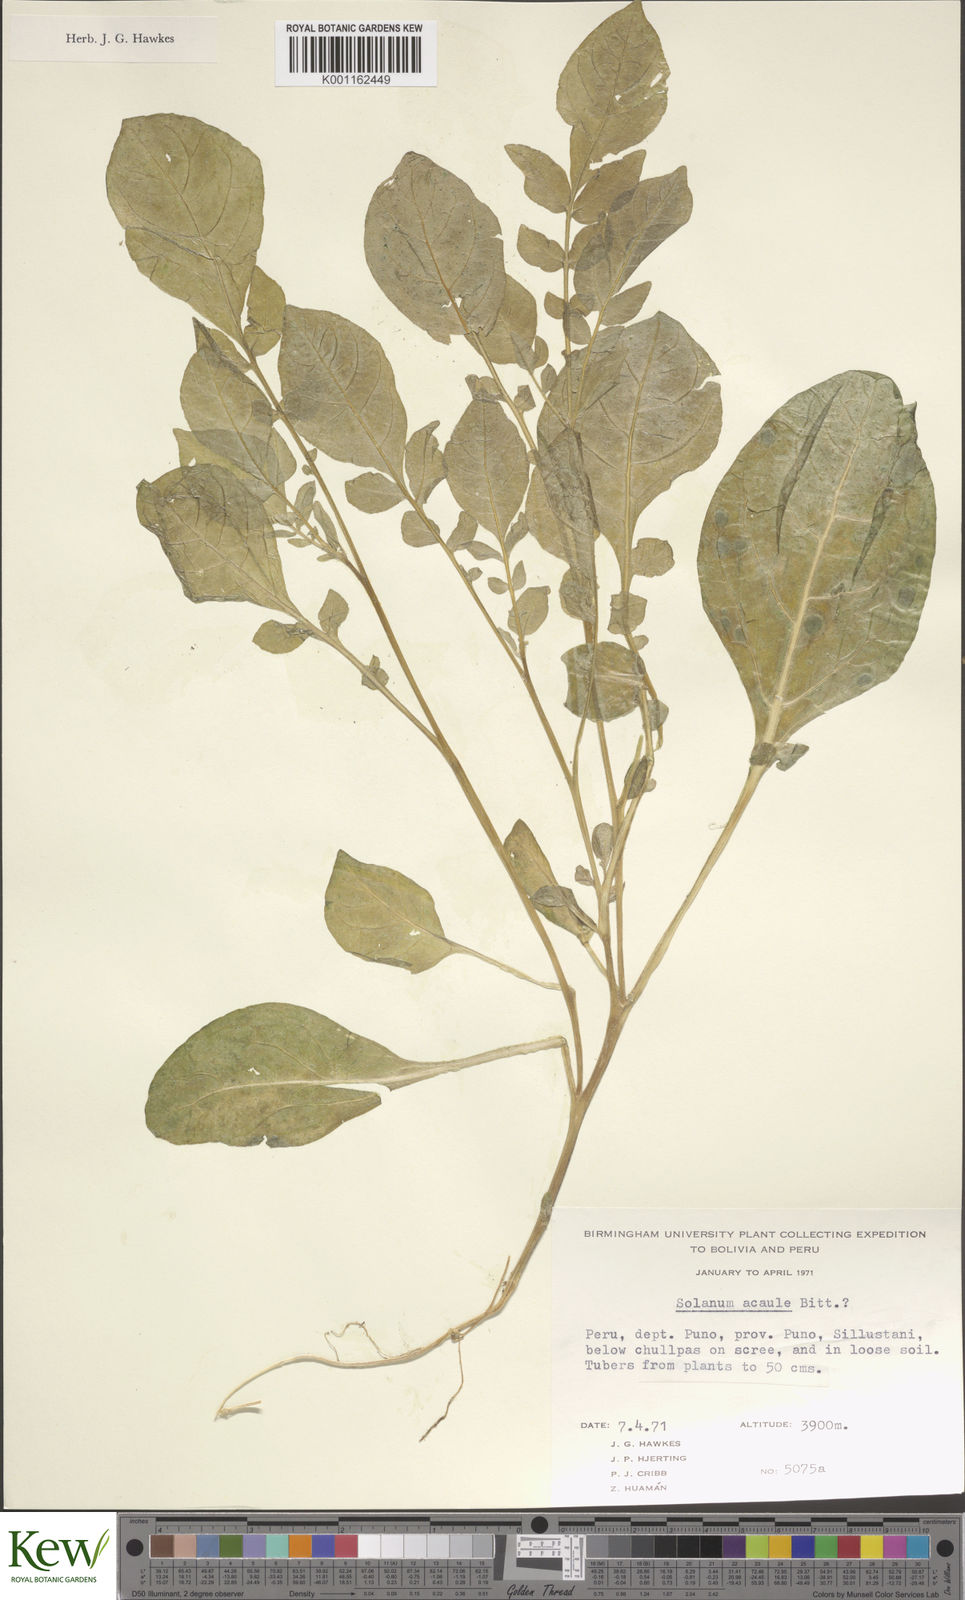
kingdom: Plantae
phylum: Tracheophyta
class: Magnoliopsida
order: Solanales
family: Solanaceae
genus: Solanum
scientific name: Solanum acaule
